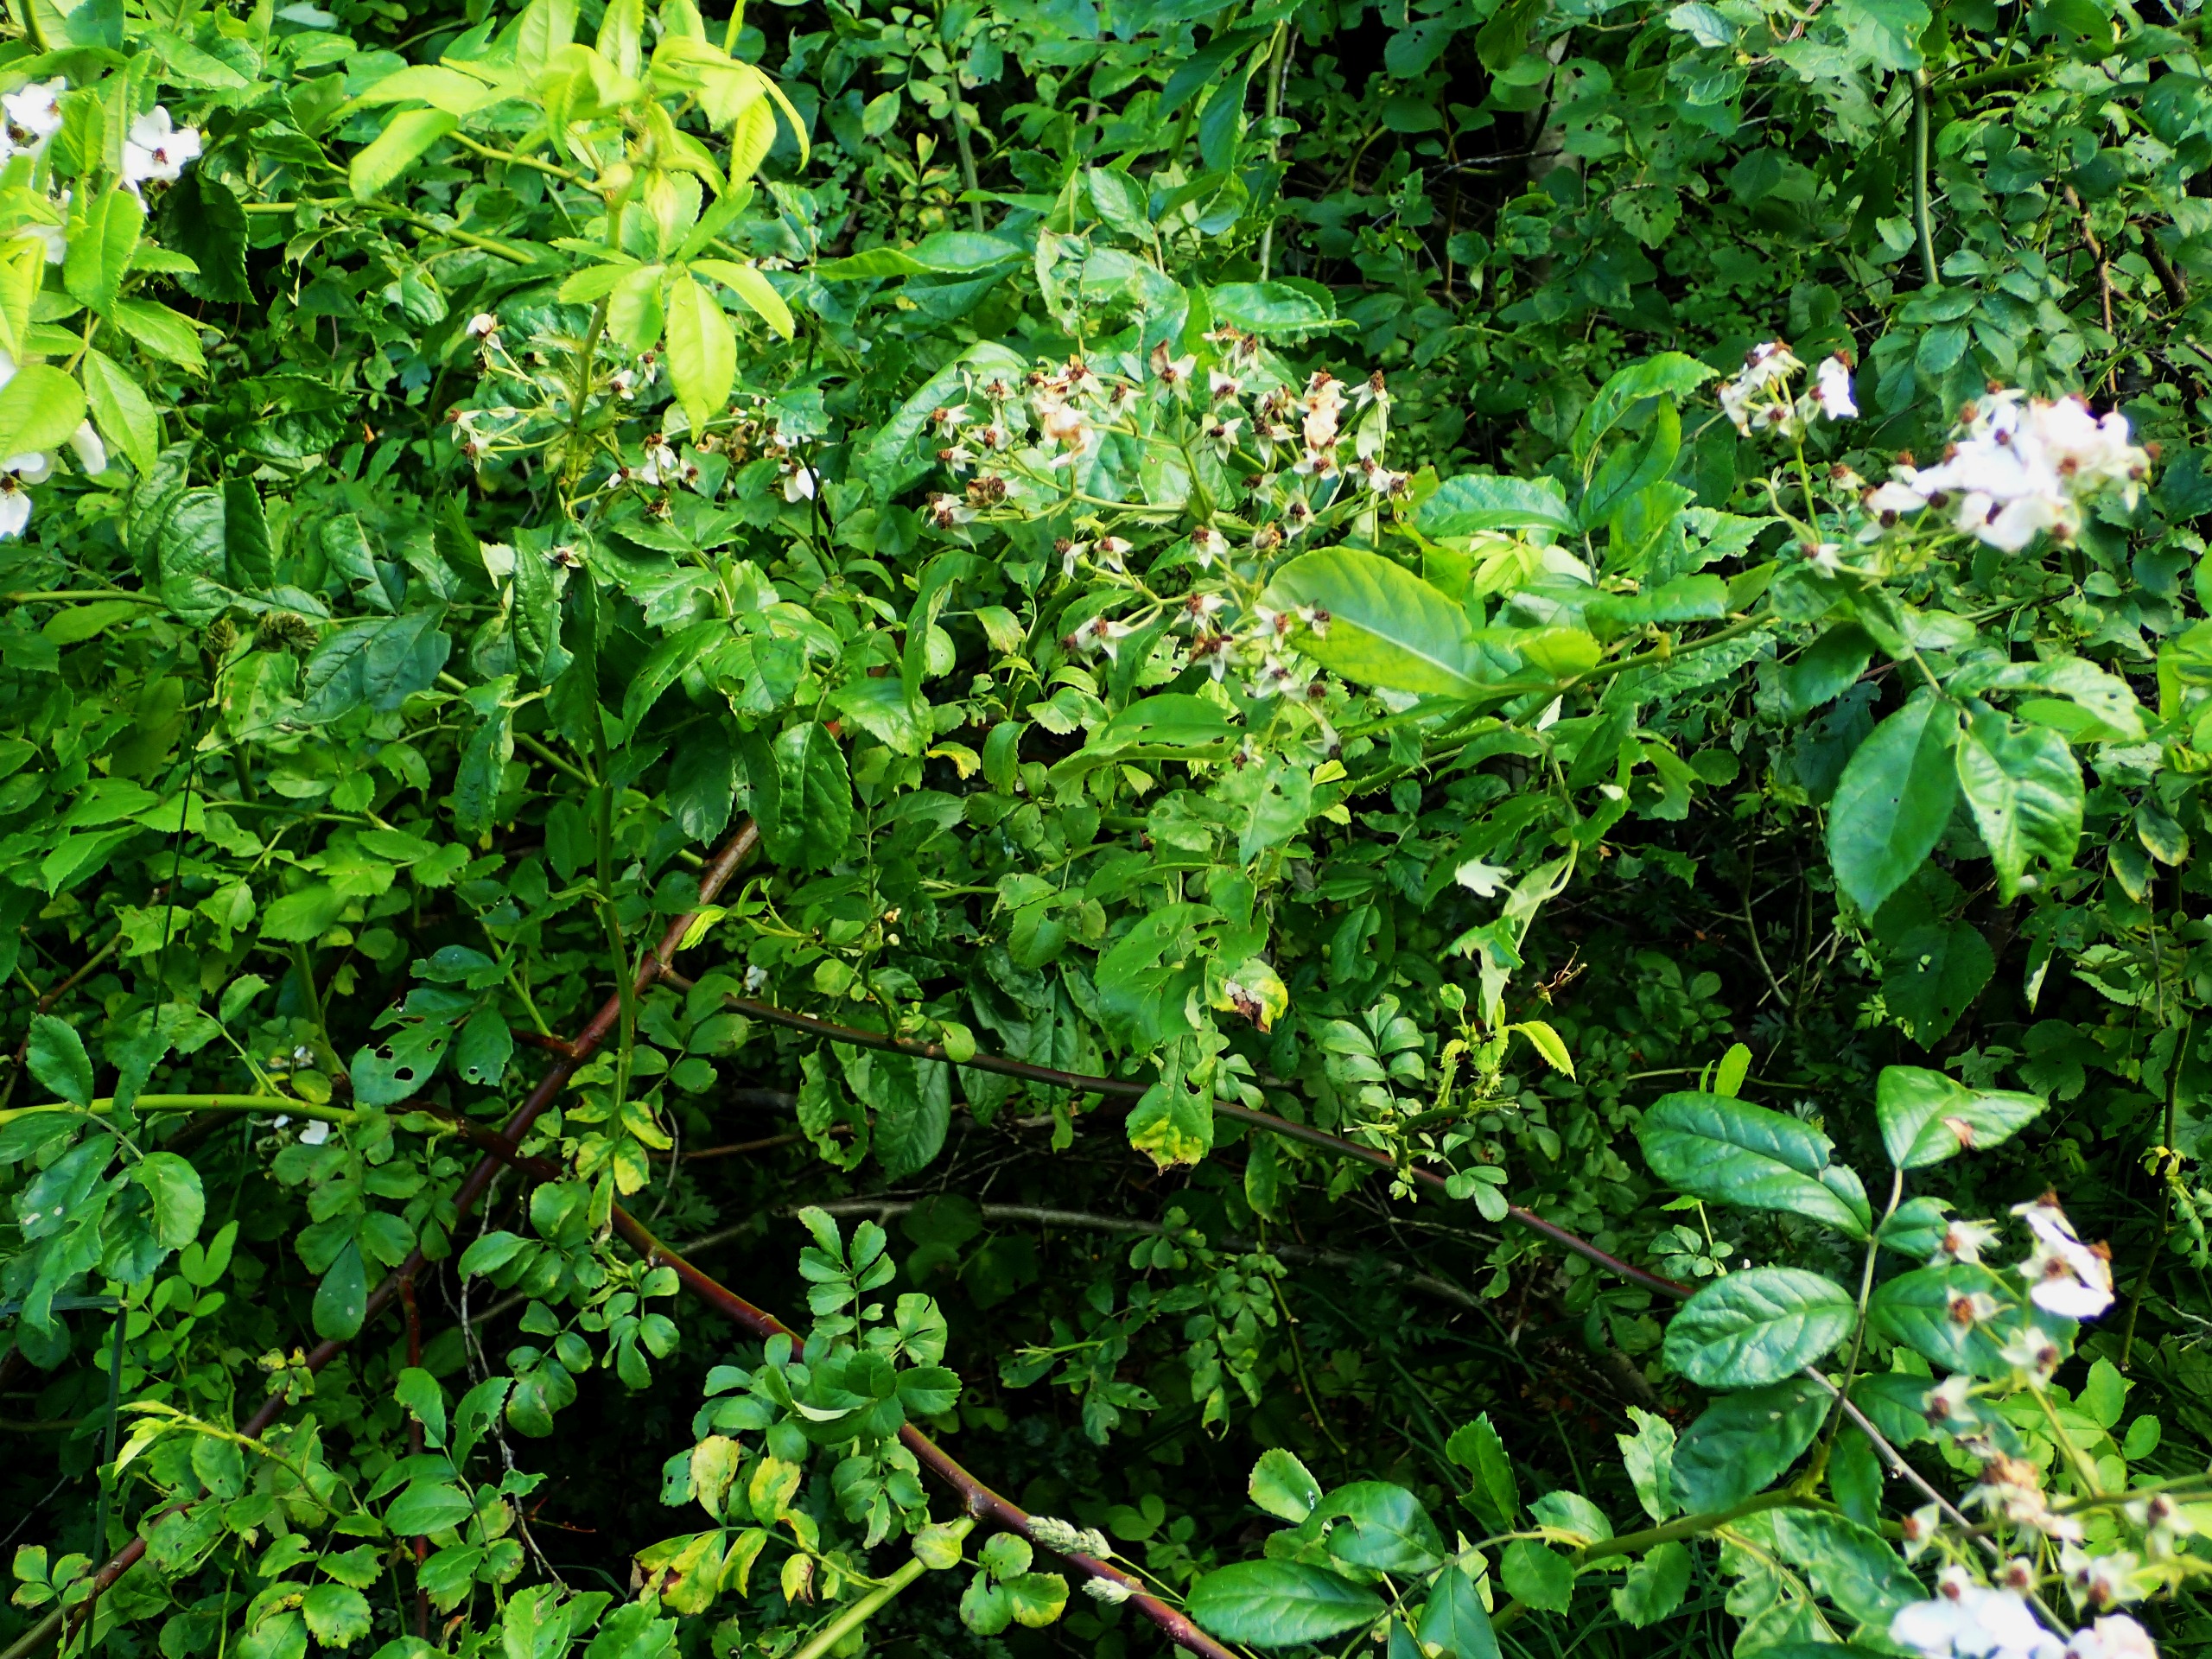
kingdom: Plantae
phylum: Tracheophyta
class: Magnoliopsida
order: Rosales
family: Rosaceae
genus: Rosa
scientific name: Rosa multiflora
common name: Mangeblomstret rose
